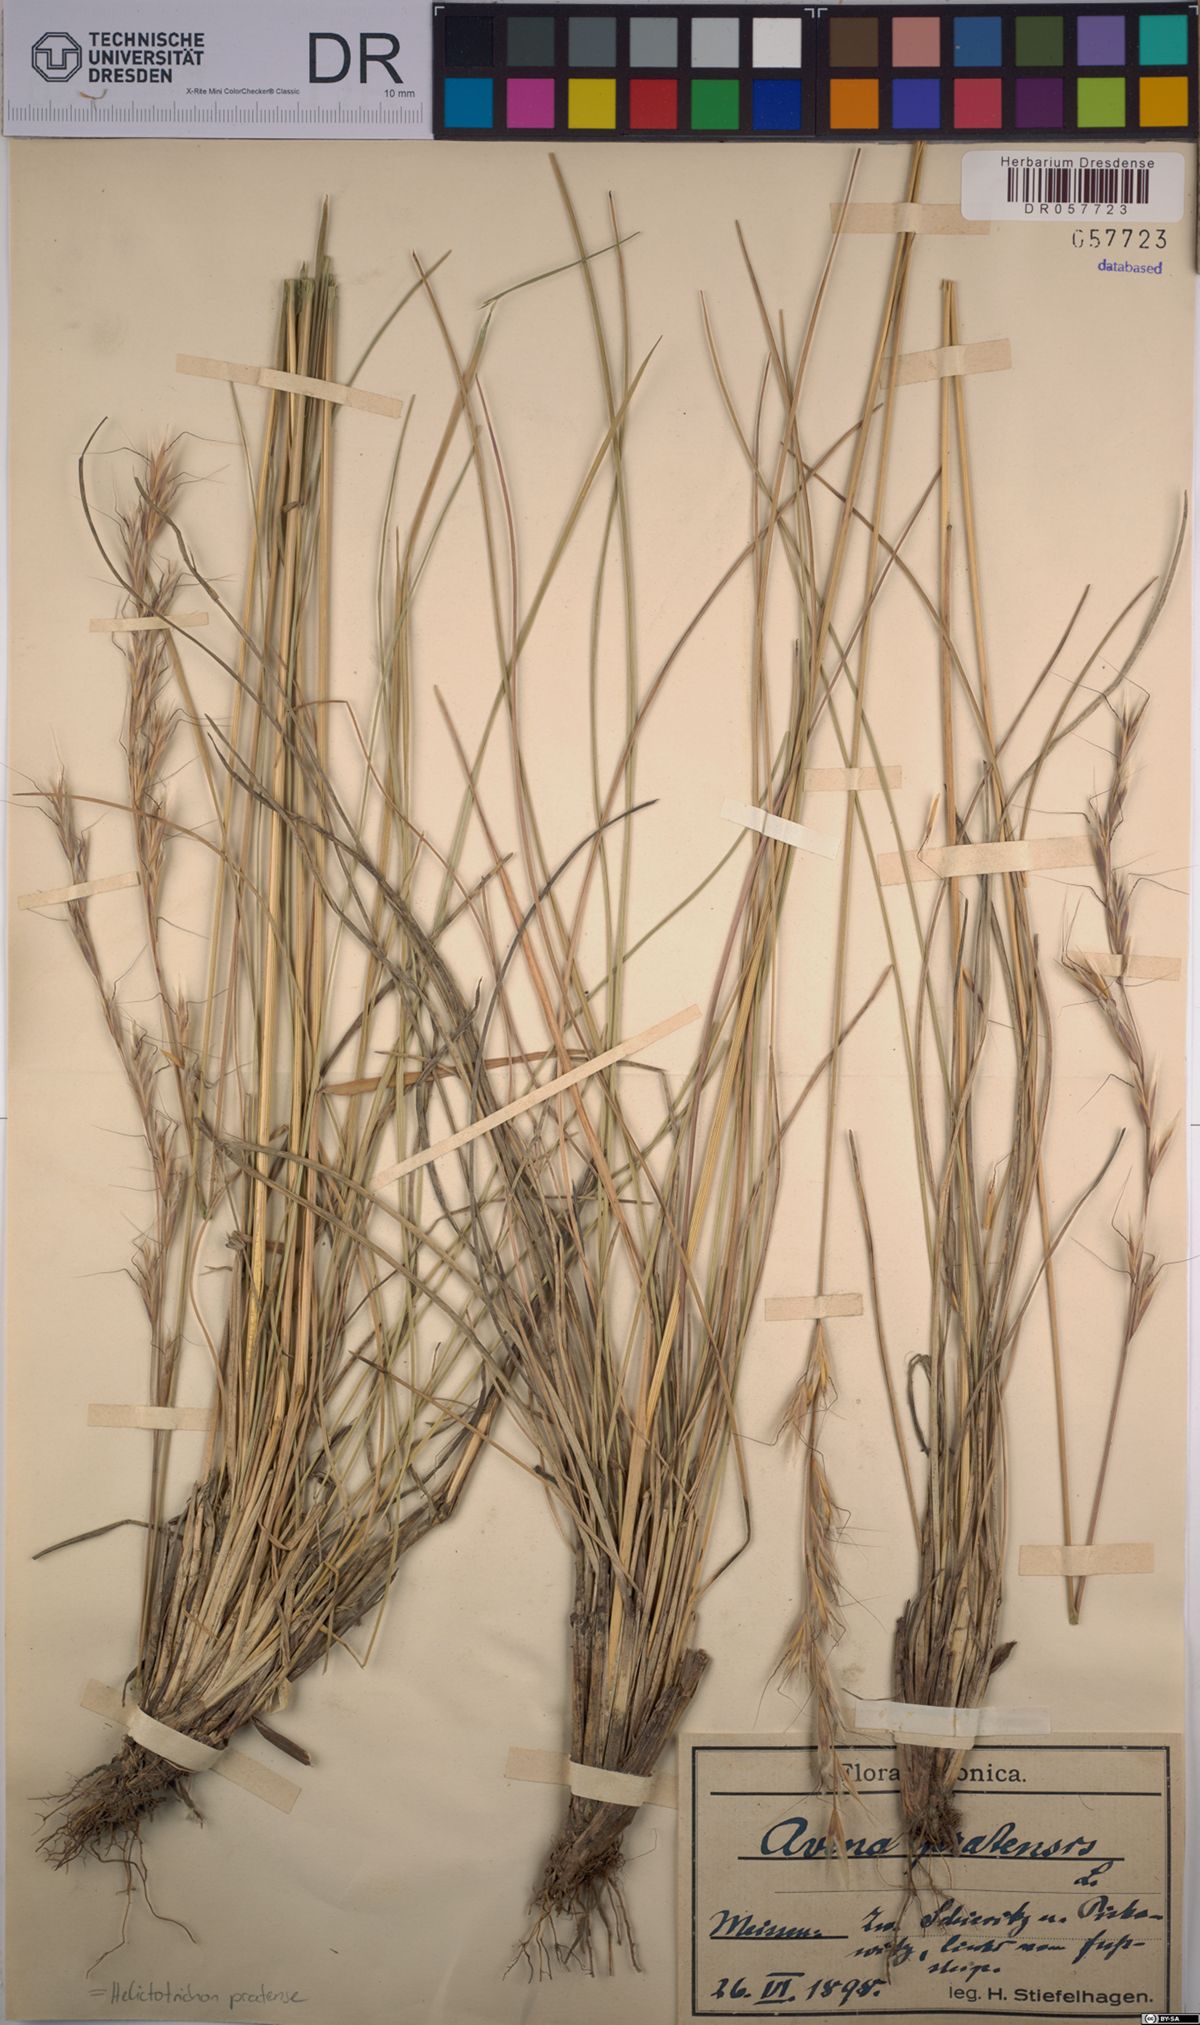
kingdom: Plantae
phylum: Tracheophyta
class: Liliopsida
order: Poales
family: Poaceae
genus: Helictochloa
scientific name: Helictochloa pratensis
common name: Meadow oat grass
